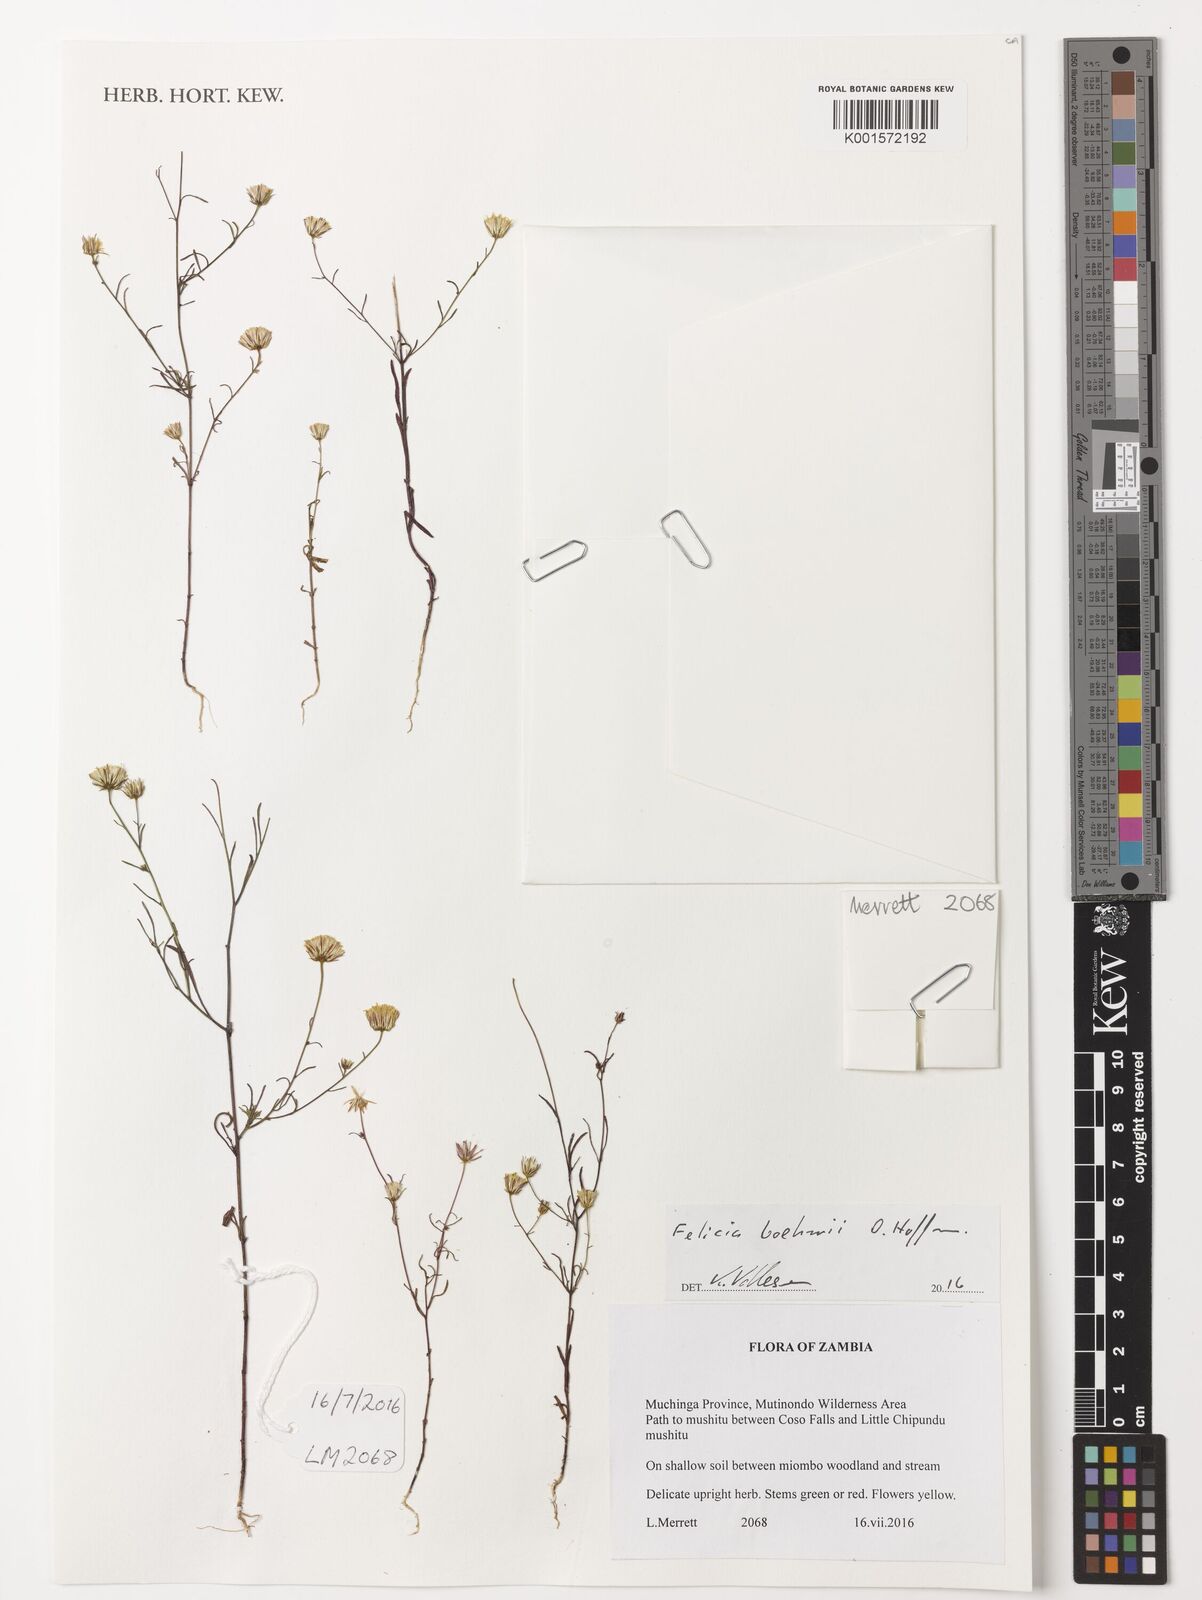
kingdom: Plantae
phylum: Tracheophyta
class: Magnoliopsida
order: Asterales
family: Asteraceae
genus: Felicia
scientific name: Felicia boehmii
